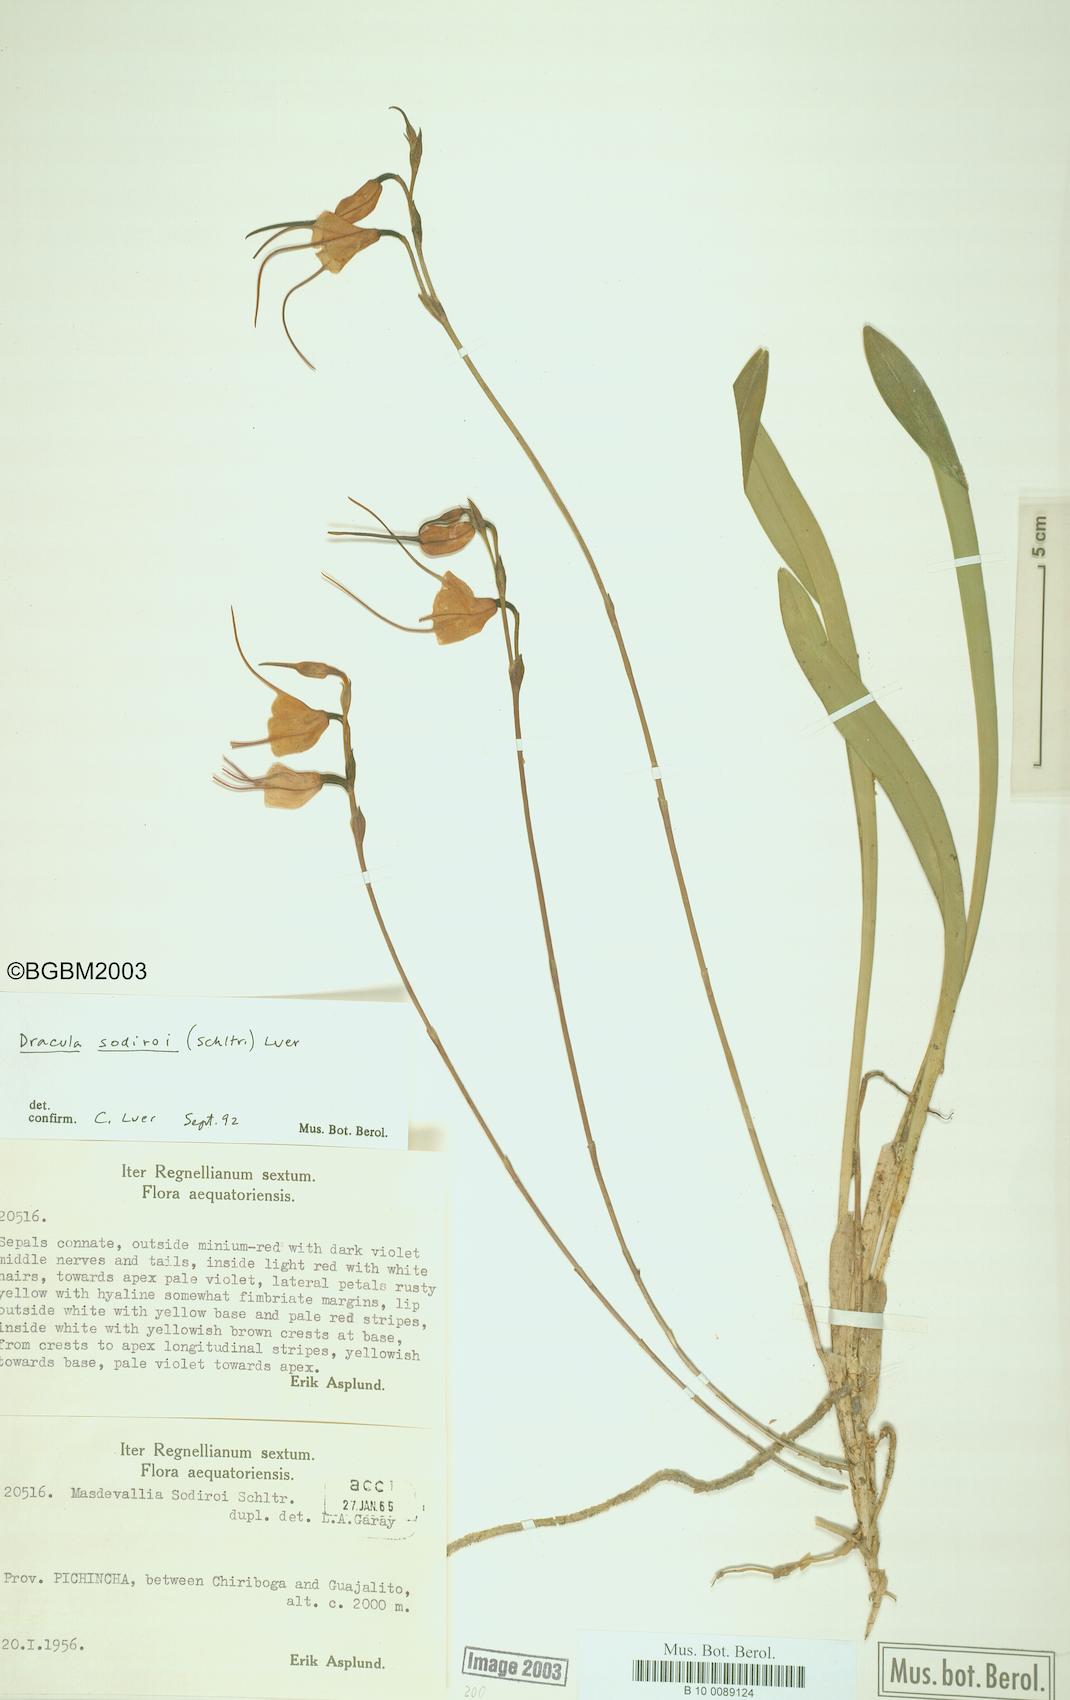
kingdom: Plantae
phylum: Tracheophyta
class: Liliopsida
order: Asparagales
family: Orchidaceae
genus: Dracula
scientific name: Dracula sodiroi
